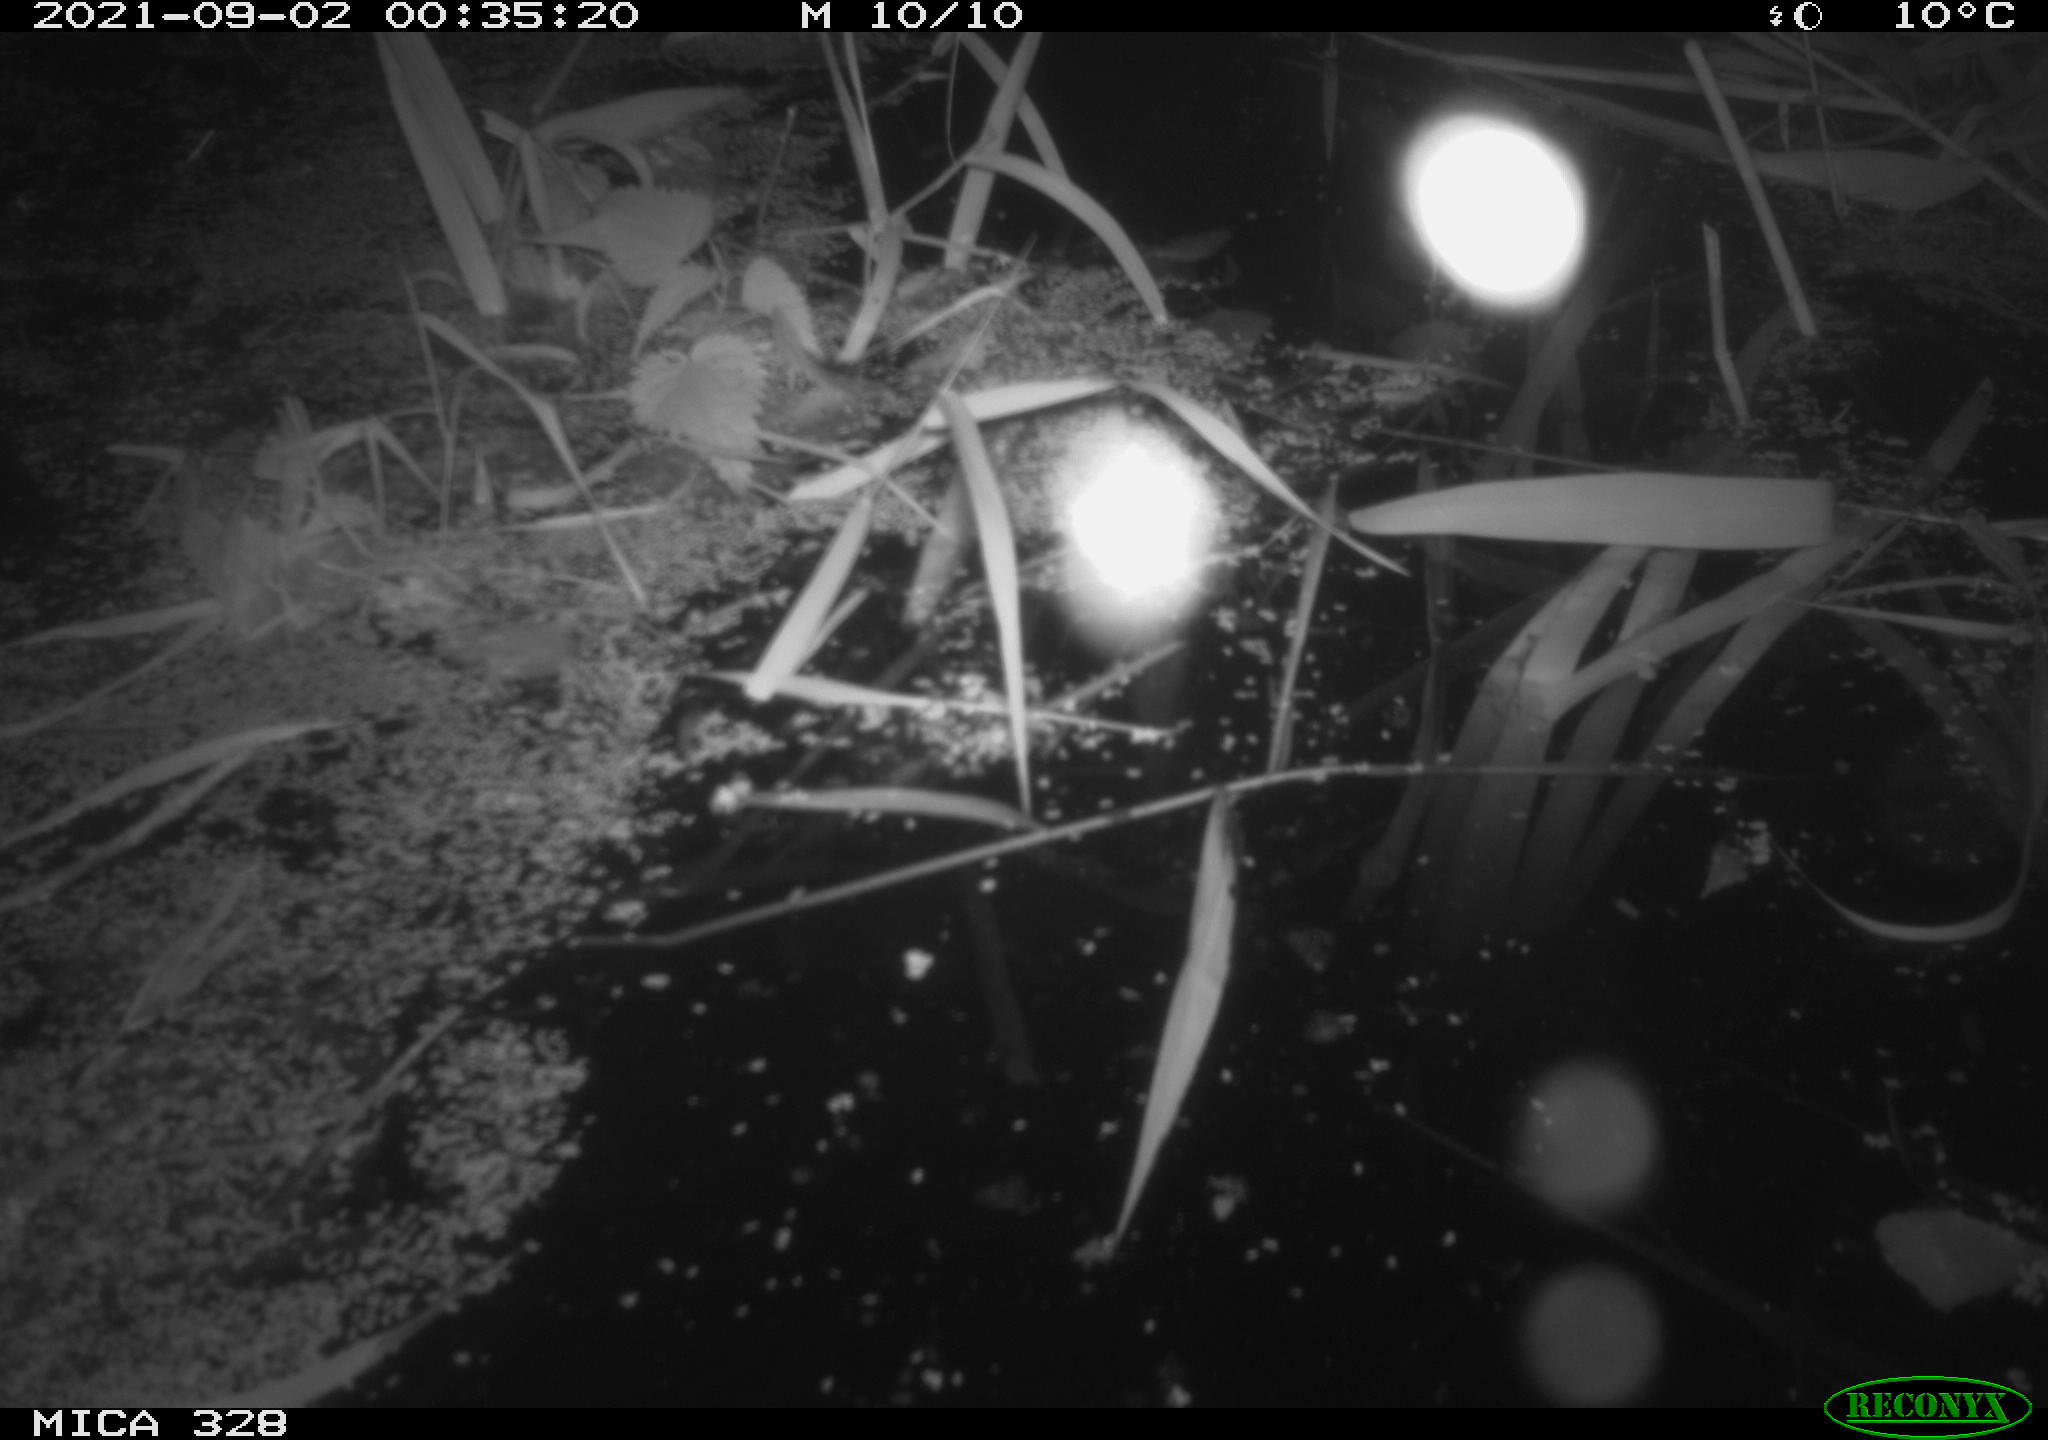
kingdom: Animalia
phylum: Chordata
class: Mammalia
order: Rodentia
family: Cricetidae
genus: Ondatra
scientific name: Ondatra zibethicus
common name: Muskrat
